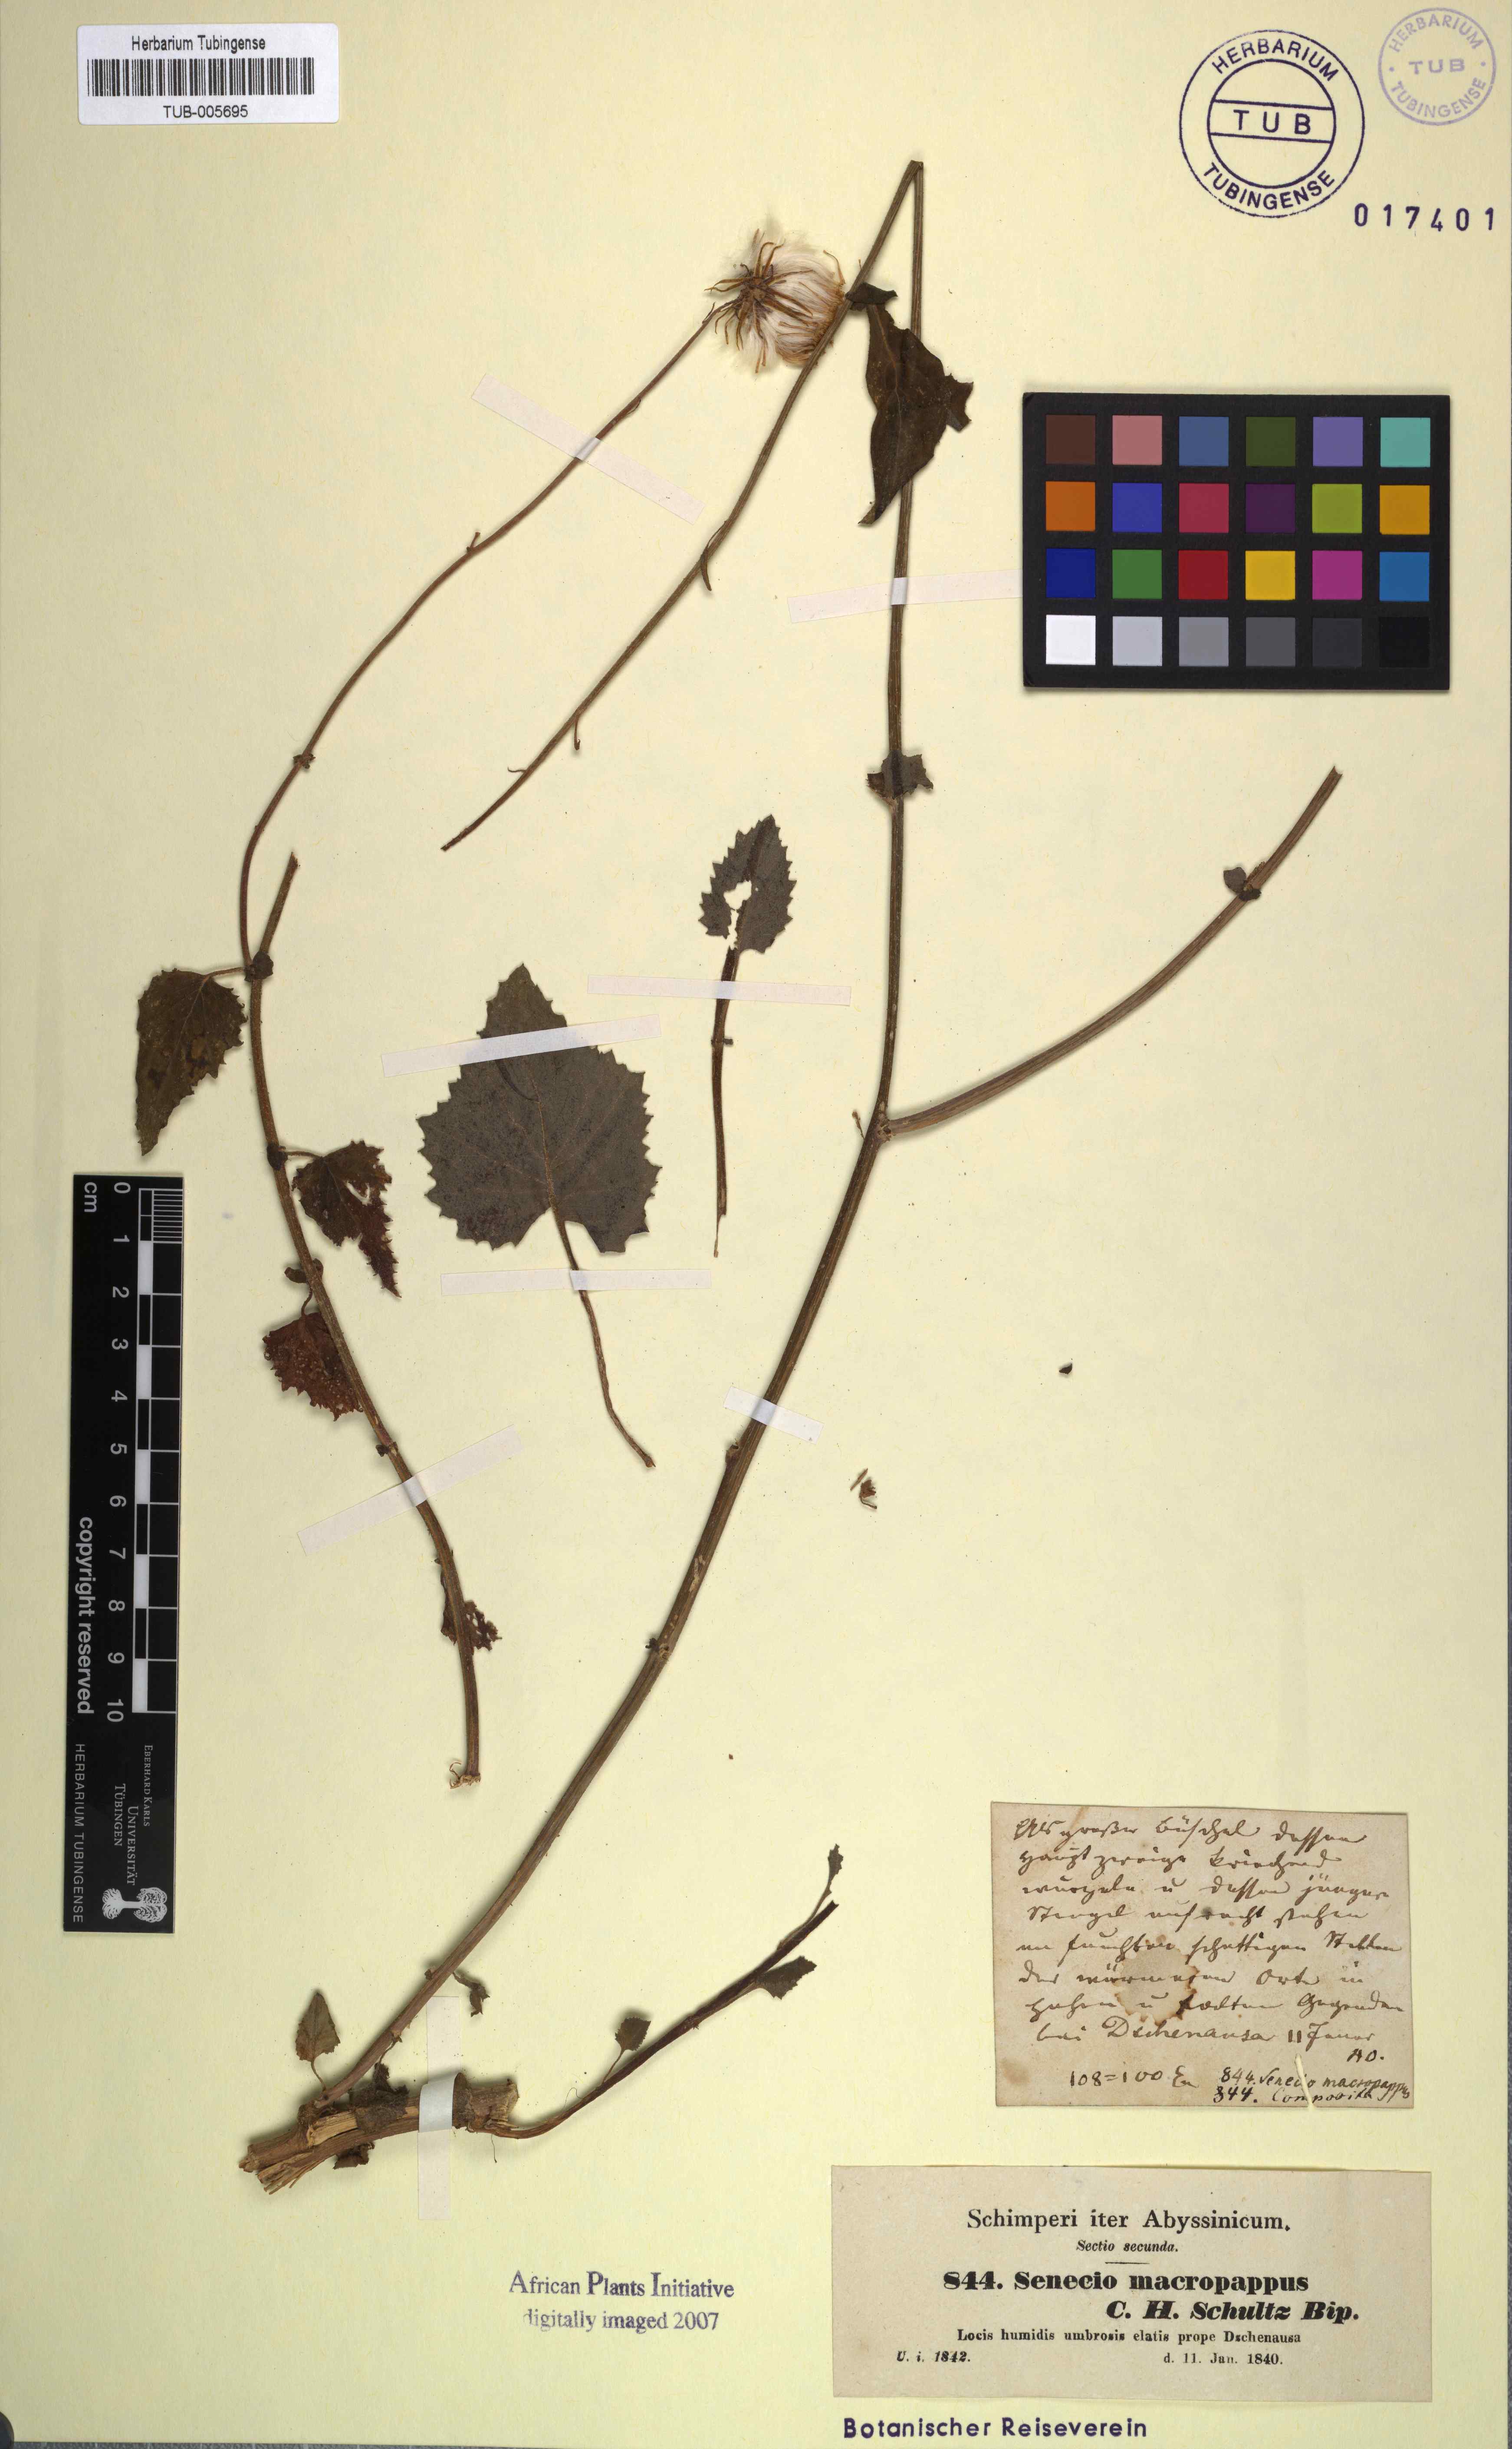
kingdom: Plantae
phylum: Tracheophyta
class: Magnoliopsida
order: Asterales
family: Asteraceae
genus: Crassocephalum
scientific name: Crassocephalum macropappus
